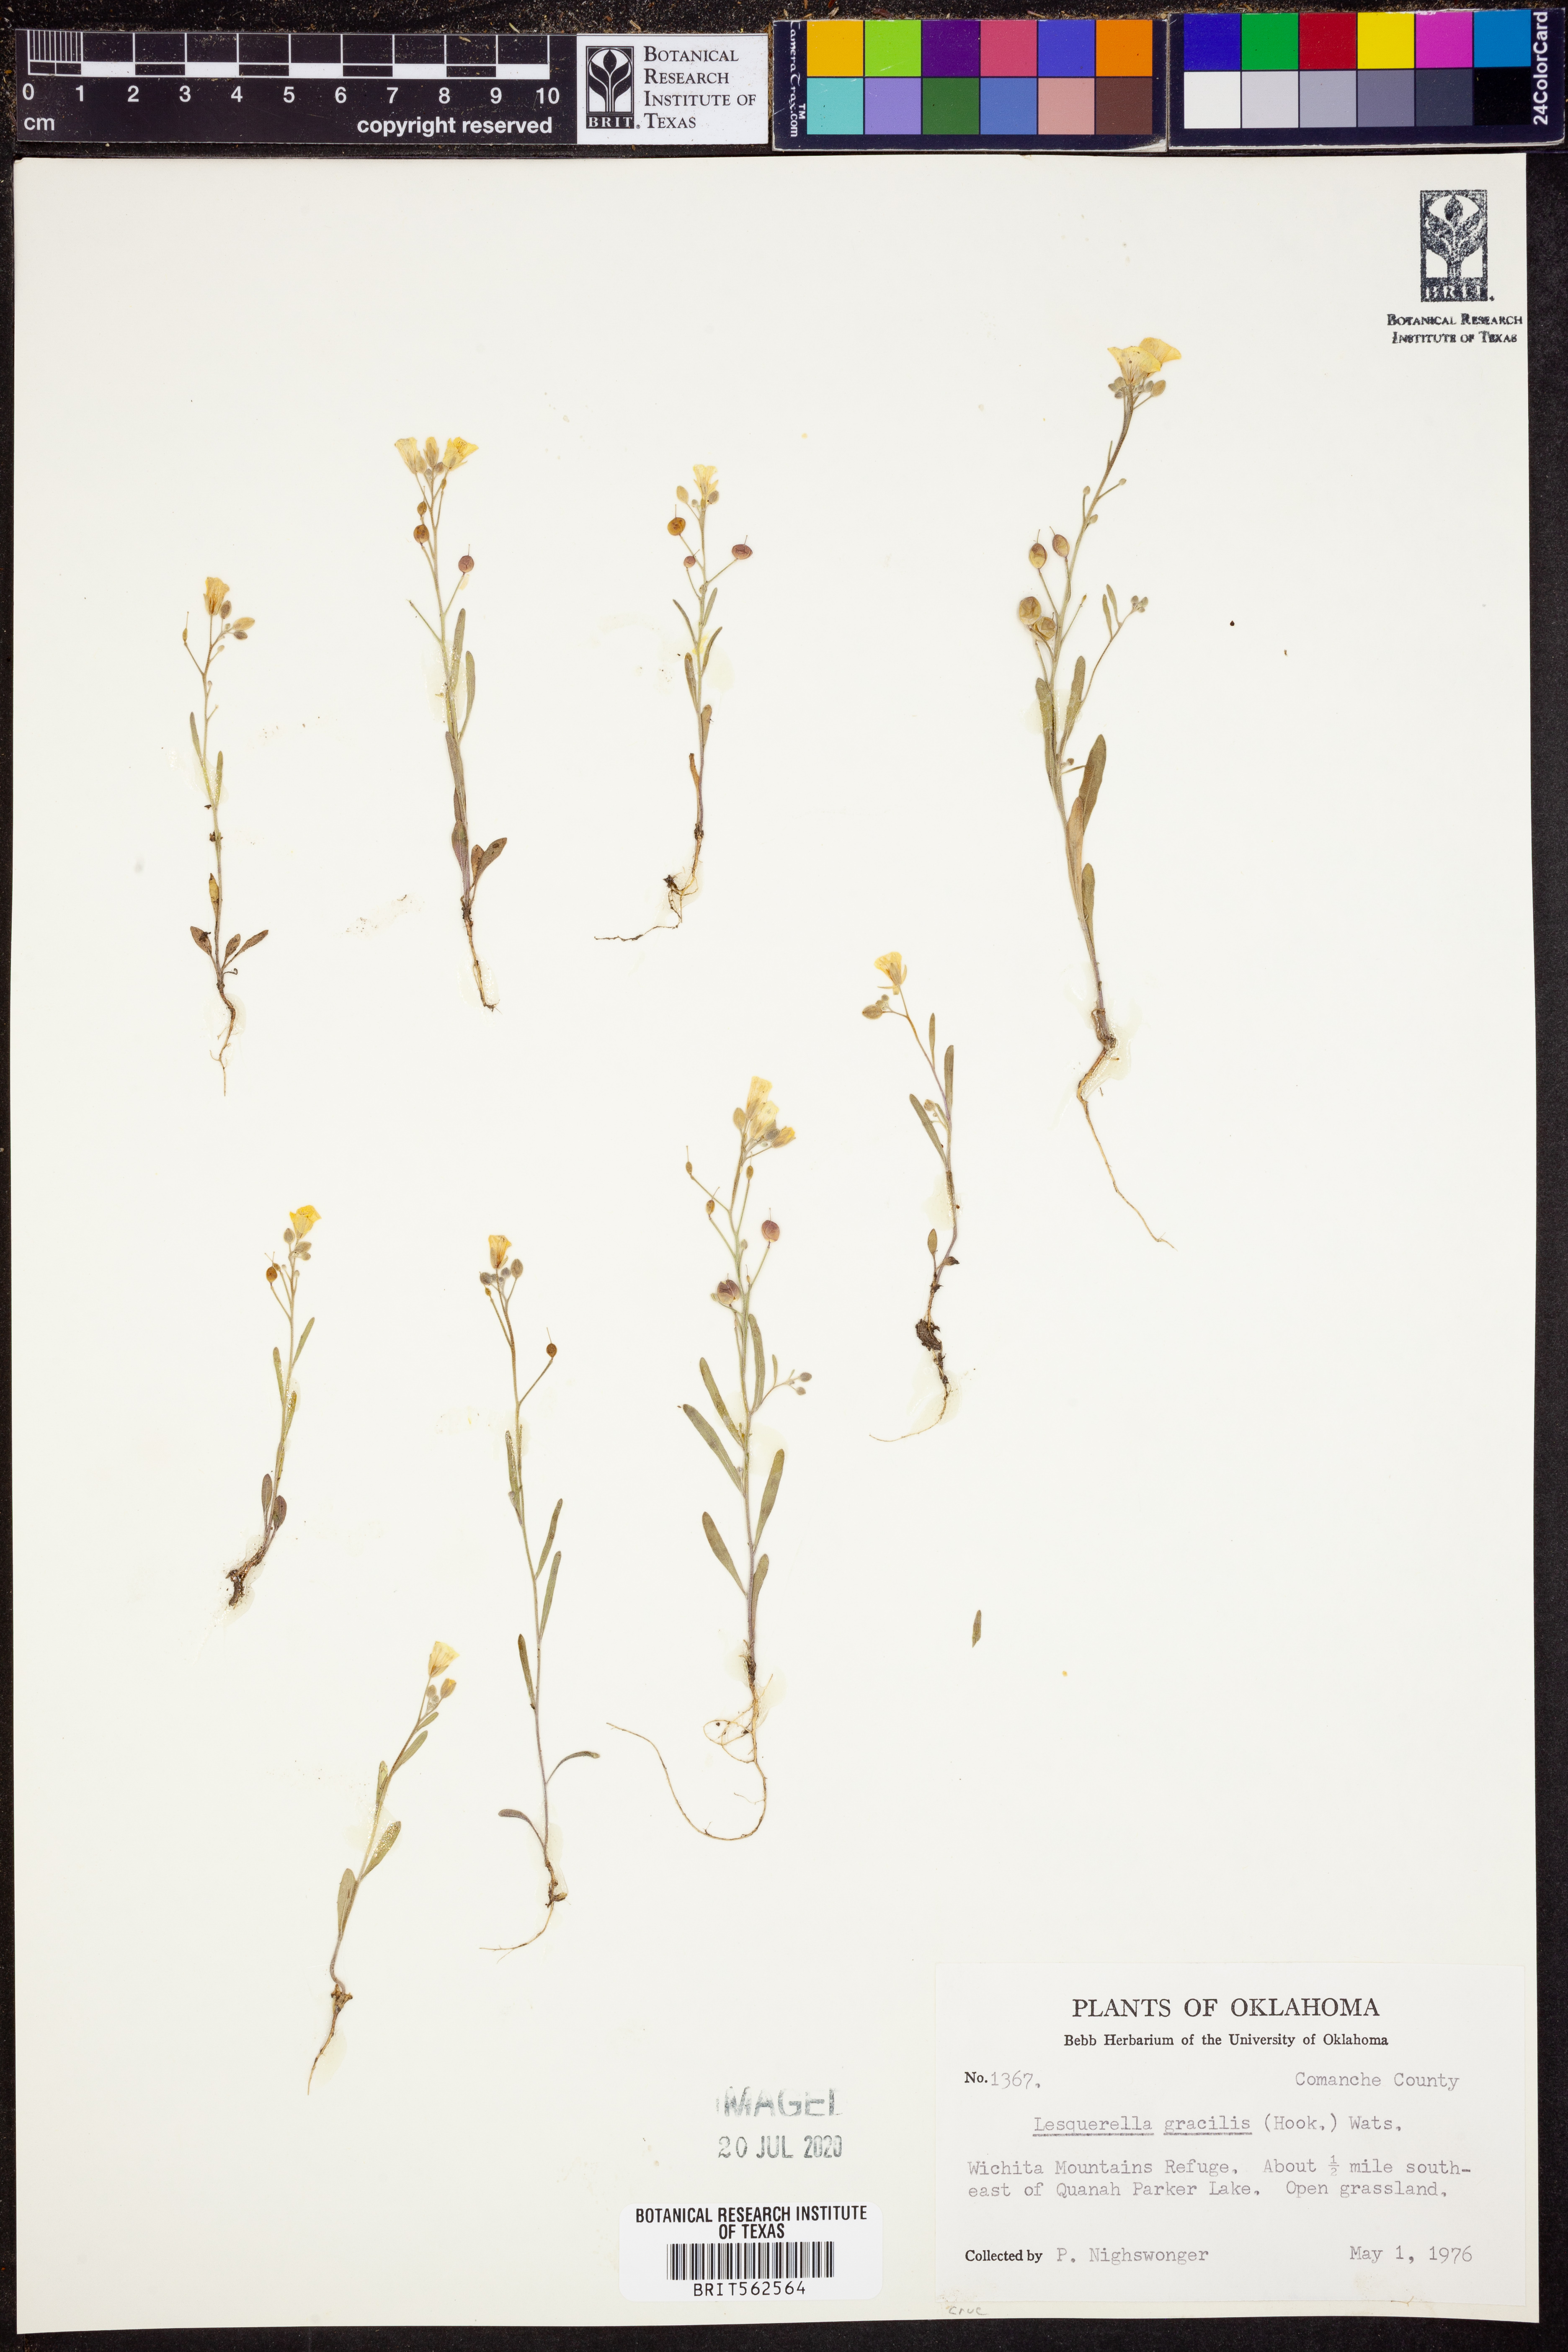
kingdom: Plantae
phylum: Tracheophyta
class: Magnoliopsida
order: Brassicales
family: Brassicaceae
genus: Physaria
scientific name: Physaria gracilis
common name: Spreading bladderpod
